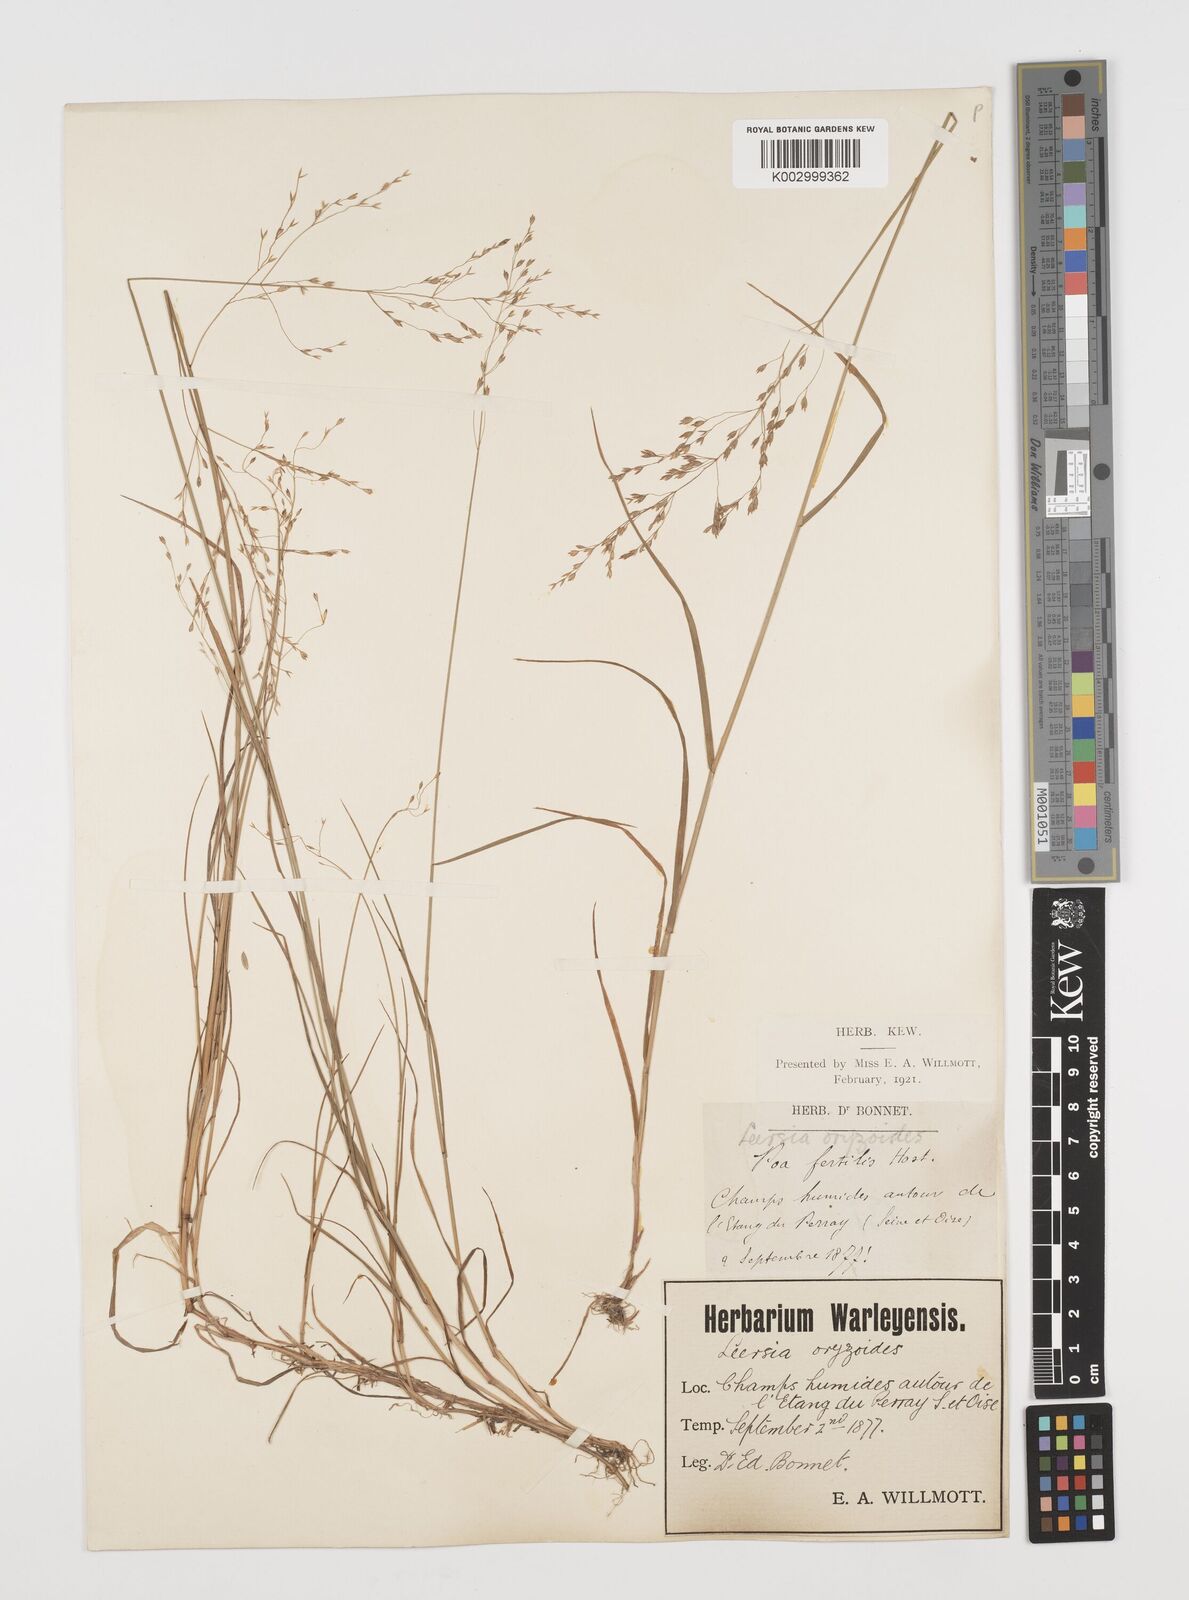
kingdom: Plantae
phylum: Tracheophyta
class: Liliopsida
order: Poales
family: Poaceae
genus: Leersia
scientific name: Leersia oryzoides
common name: Cut-grass
